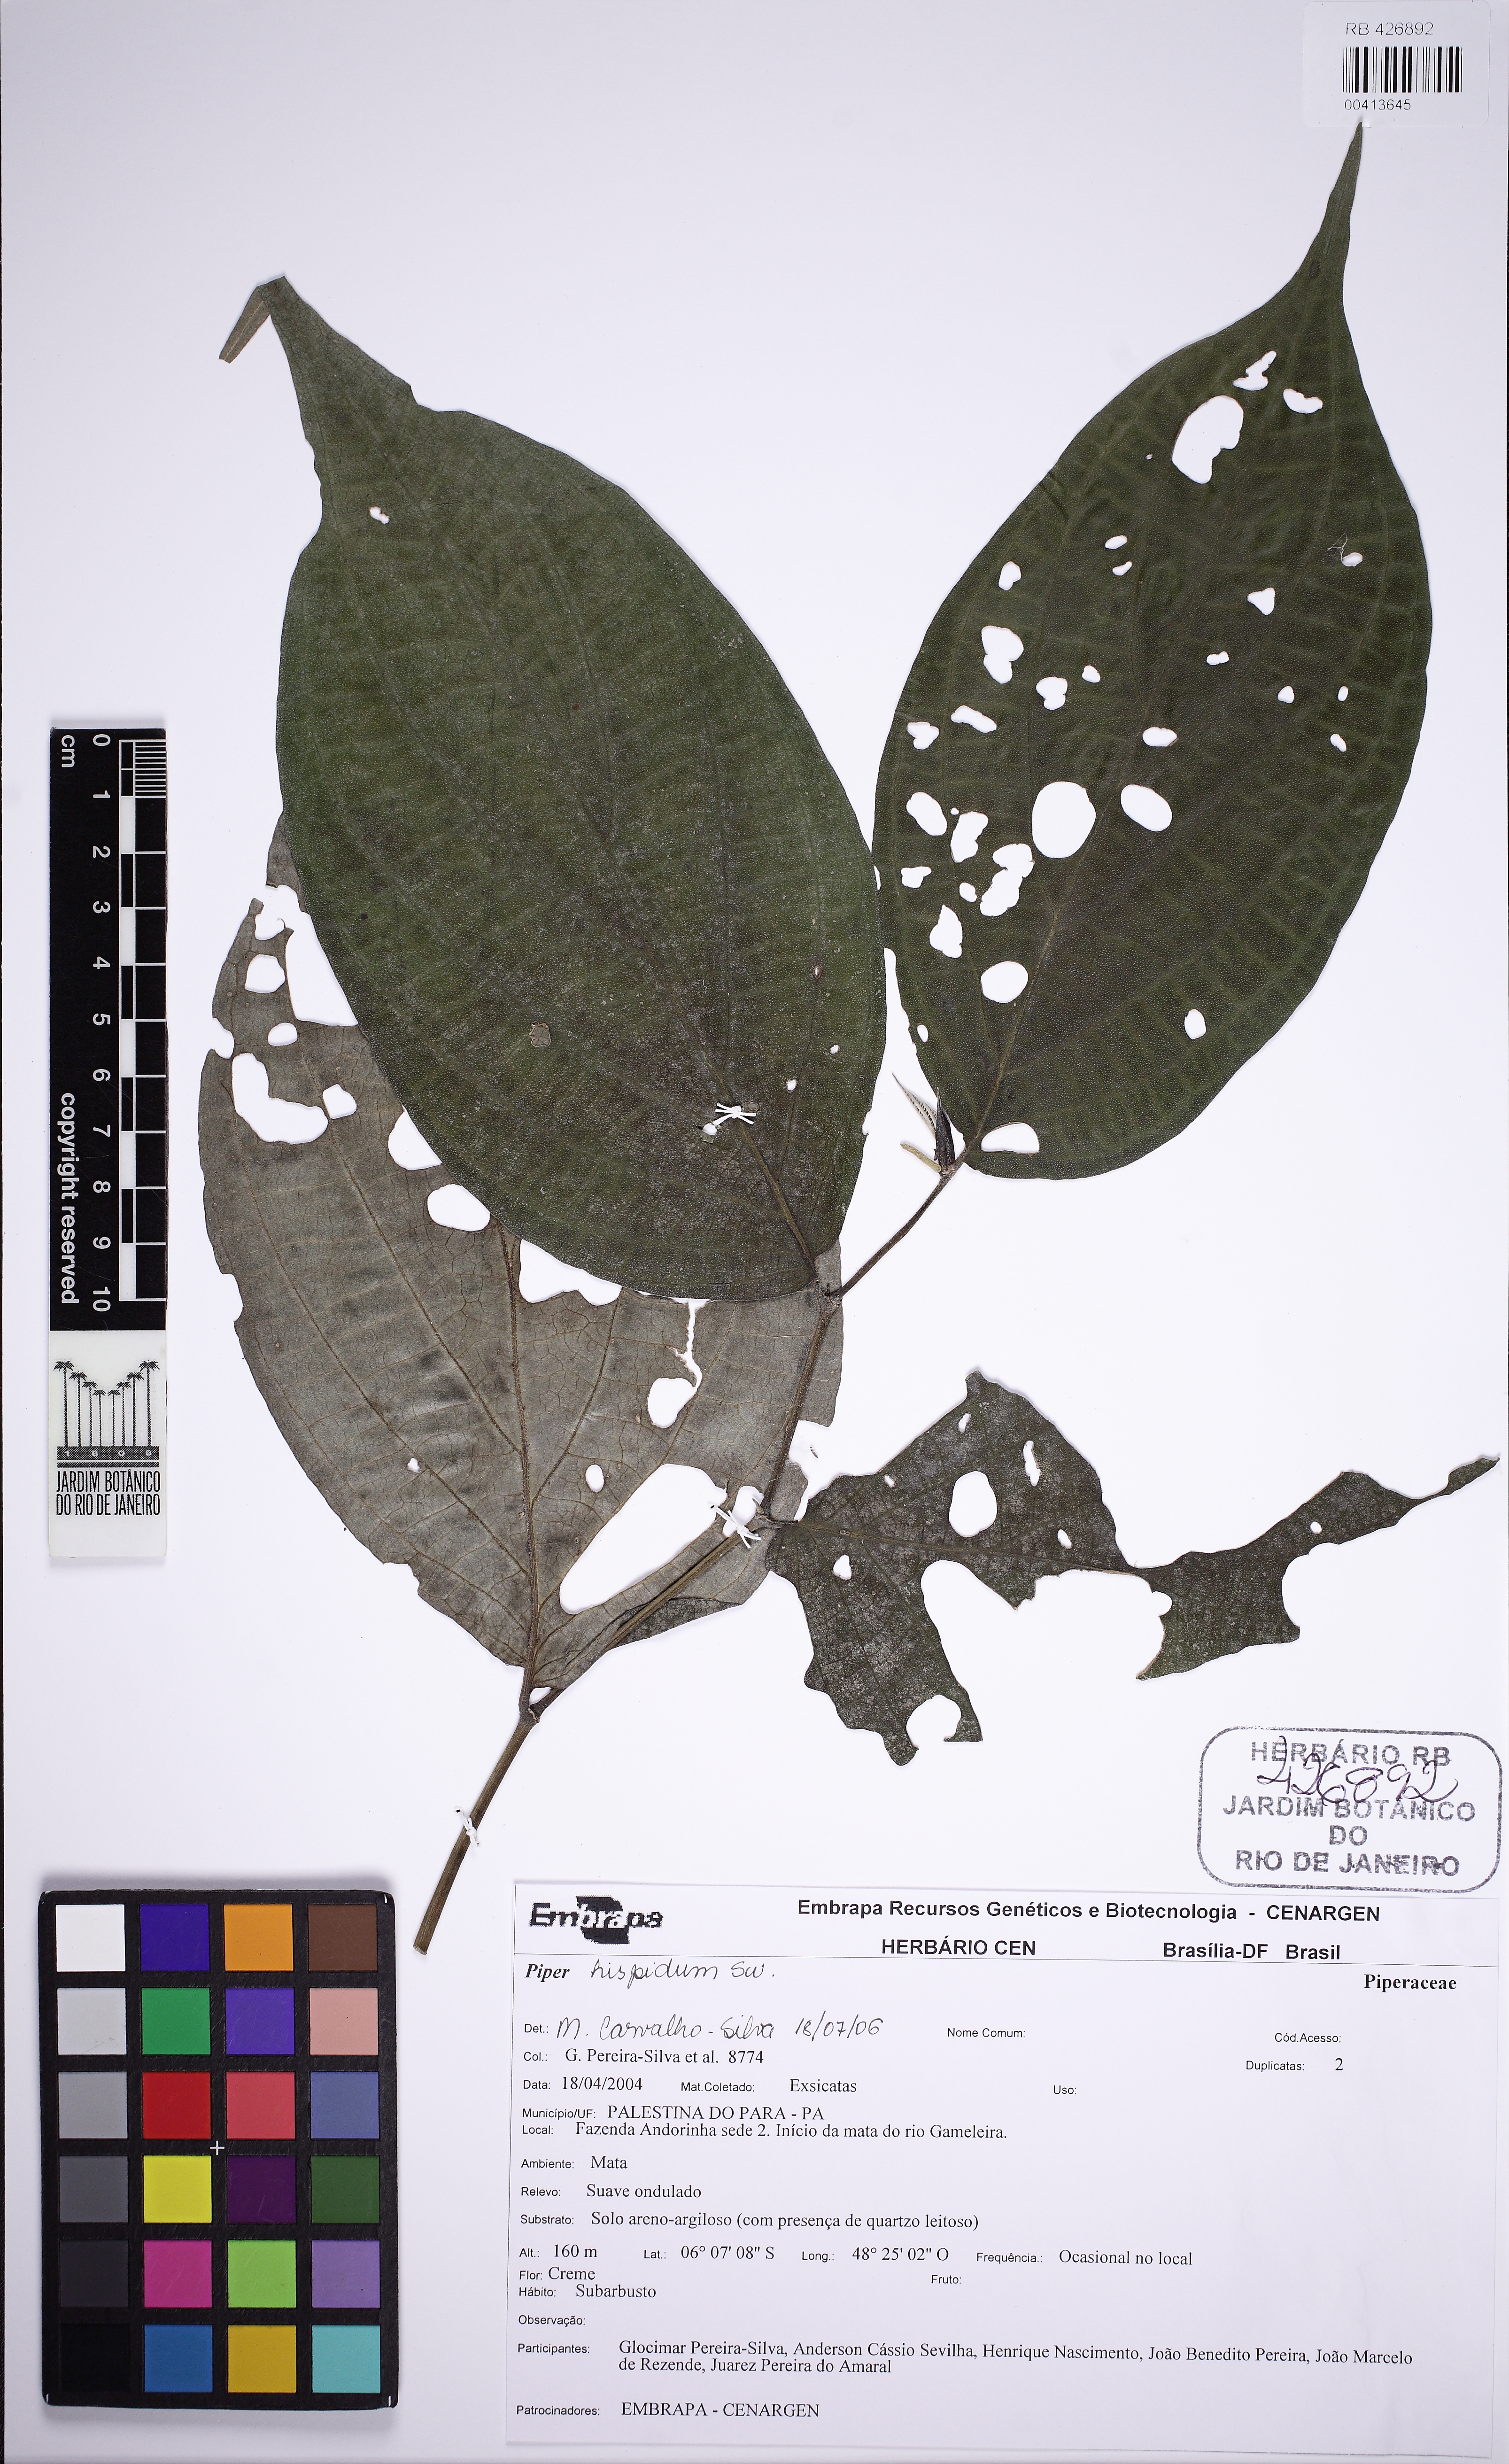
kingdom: Plantae
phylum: Tracheophyta
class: Magnoliopsida
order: Piperales
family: Piperaceae
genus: Piper
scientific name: Piper hispidum
